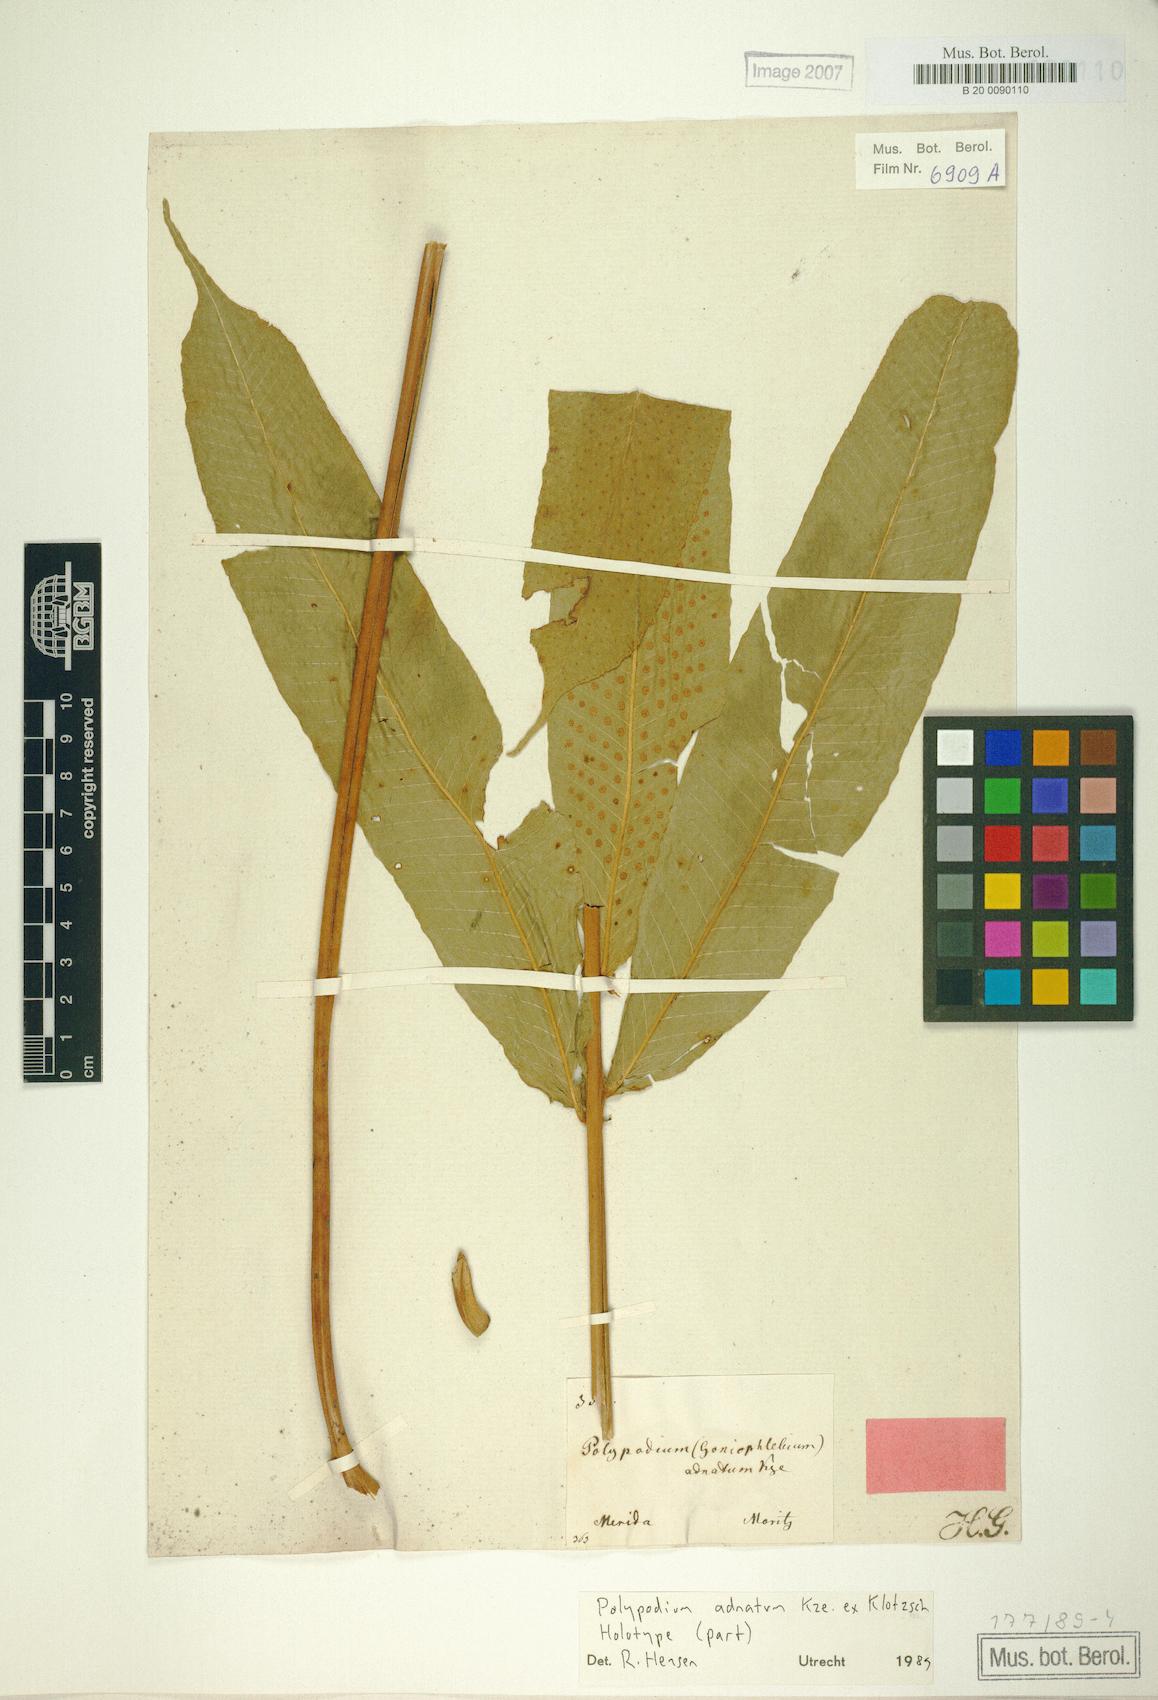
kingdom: Plantae
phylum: Tracheophyta
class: Polypodiopsida
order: Polypodiales
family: Polypodiaceae
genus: Serpocaulon
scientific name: Serpocaulon adnatum
